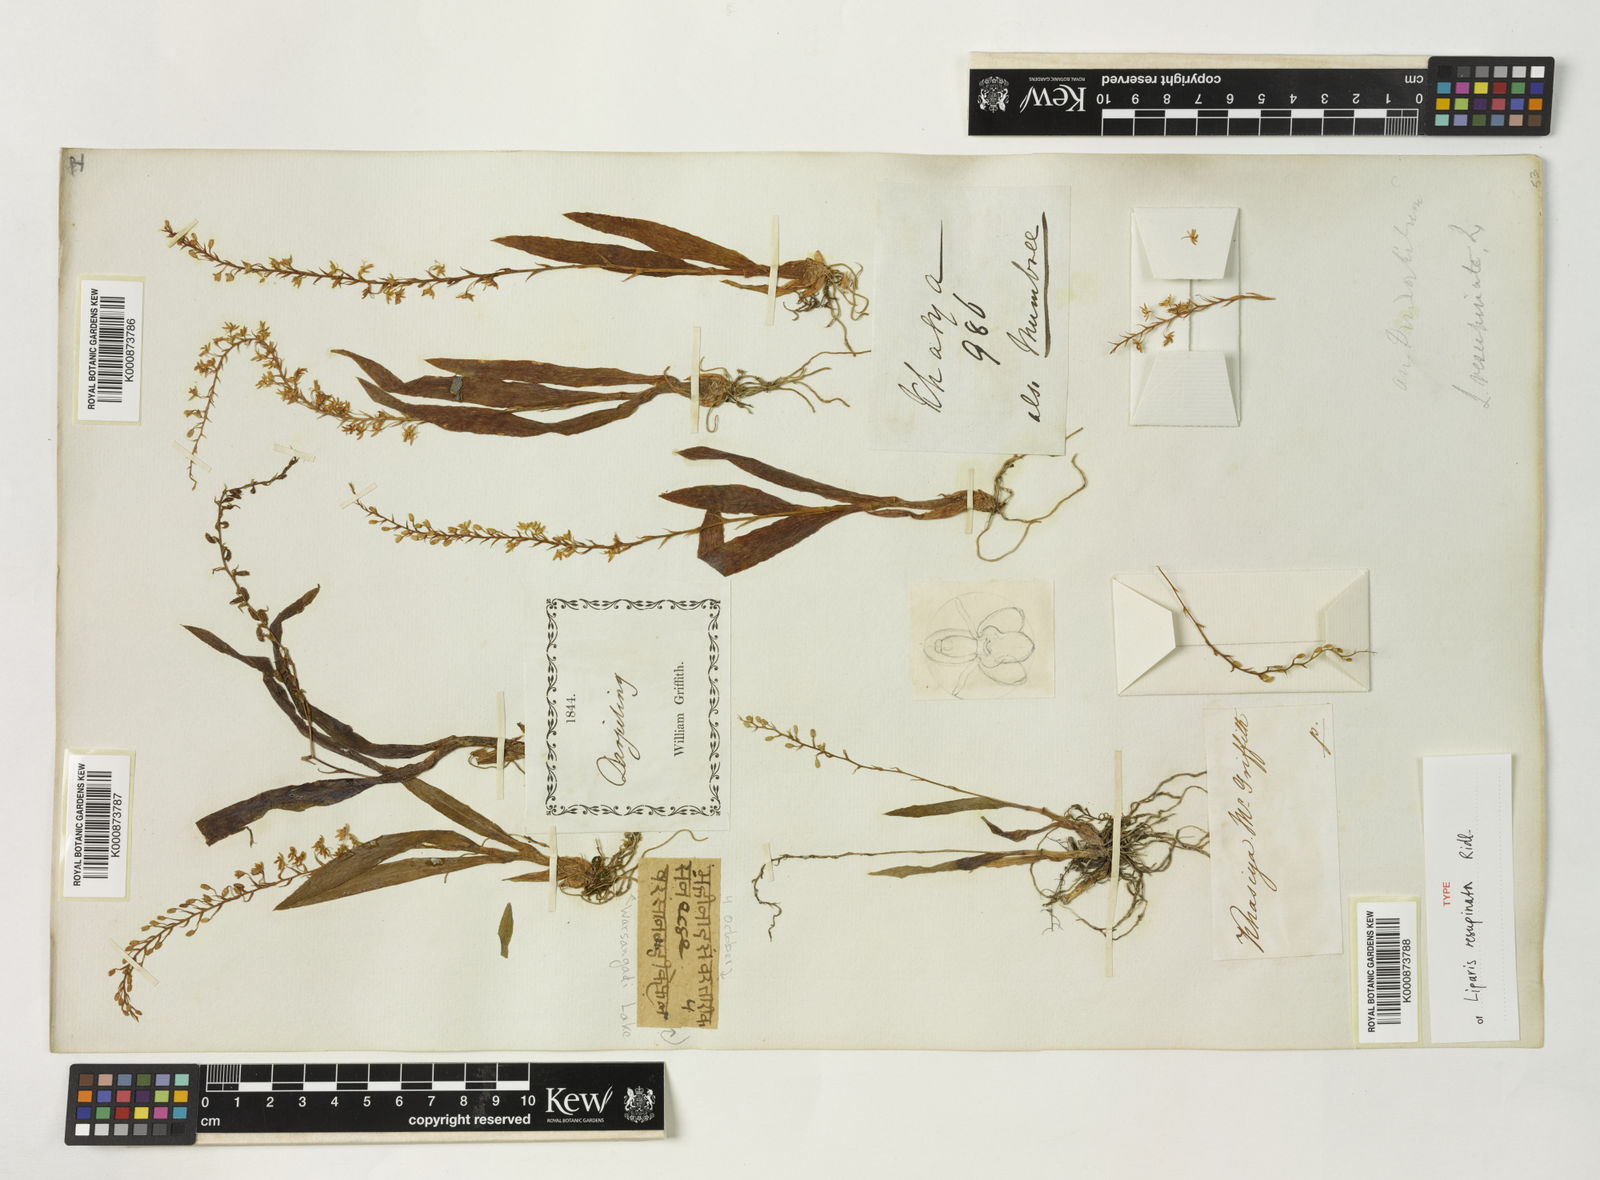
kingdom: Plantae
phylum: Tracheophyta
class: Liliopsida
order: Asparagales
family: Orchidaceae
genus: Liparis
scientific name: Liparis resupinata
